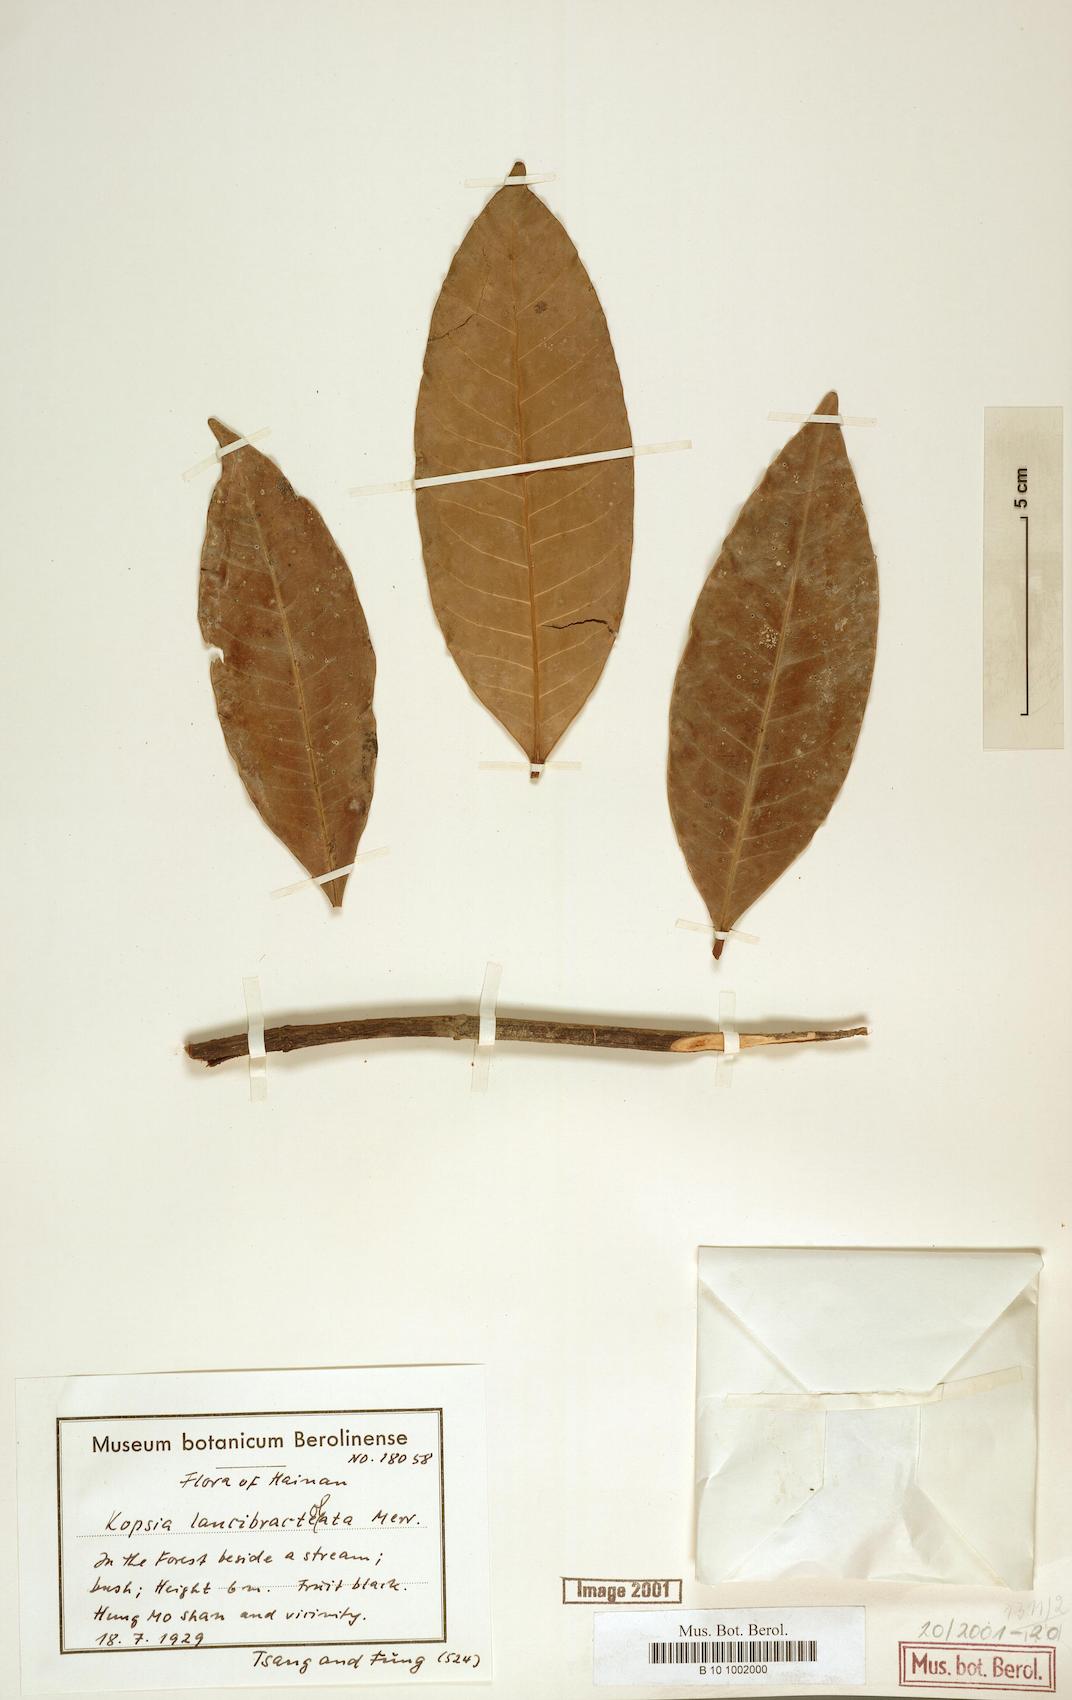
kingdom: Plantae
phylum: Tracheophyta
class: Magnoliopsida
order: Gentianales
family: Apocynaceae
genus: Kopsia
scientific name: Kopsia arborea
